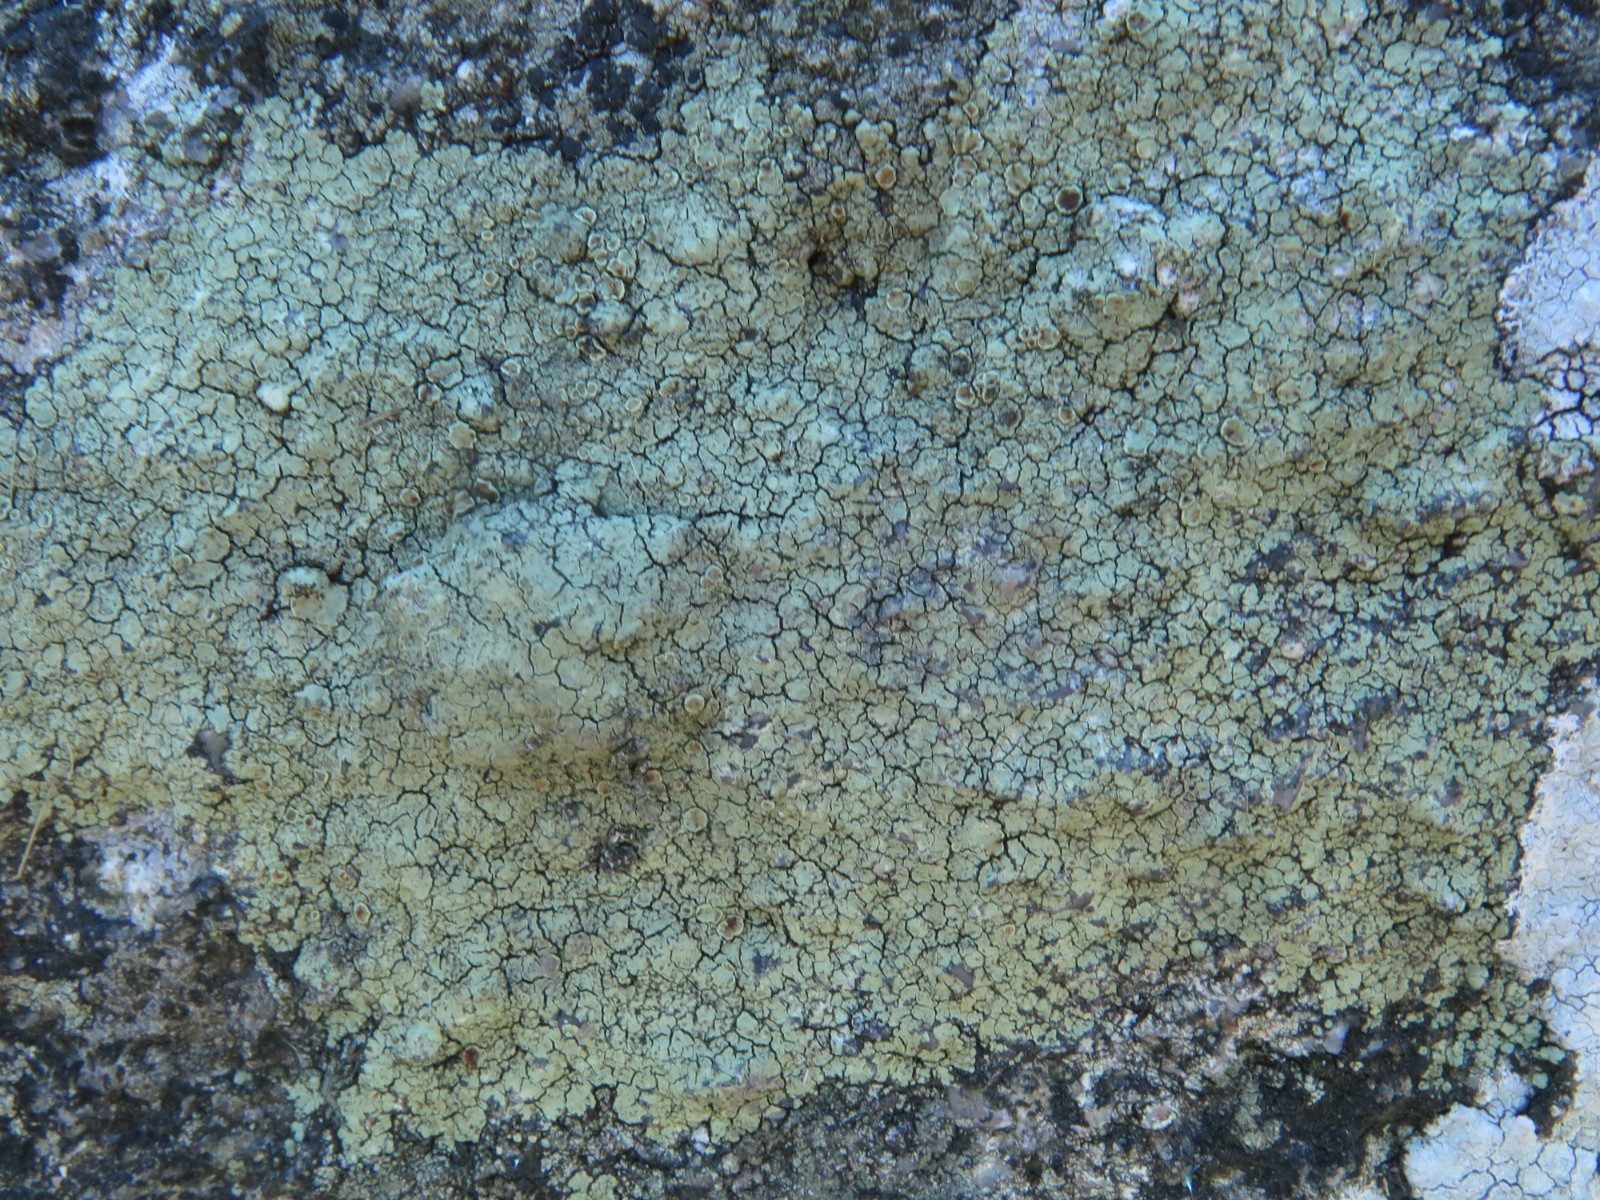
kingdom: Fungi
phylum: Ascomycota
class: Lecanoromycetes
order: Lecanorales
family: Lecanoraceae
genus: Glaucomaria
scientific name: Glaucomaria sulphurea
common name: svovlgul kantskivelav
